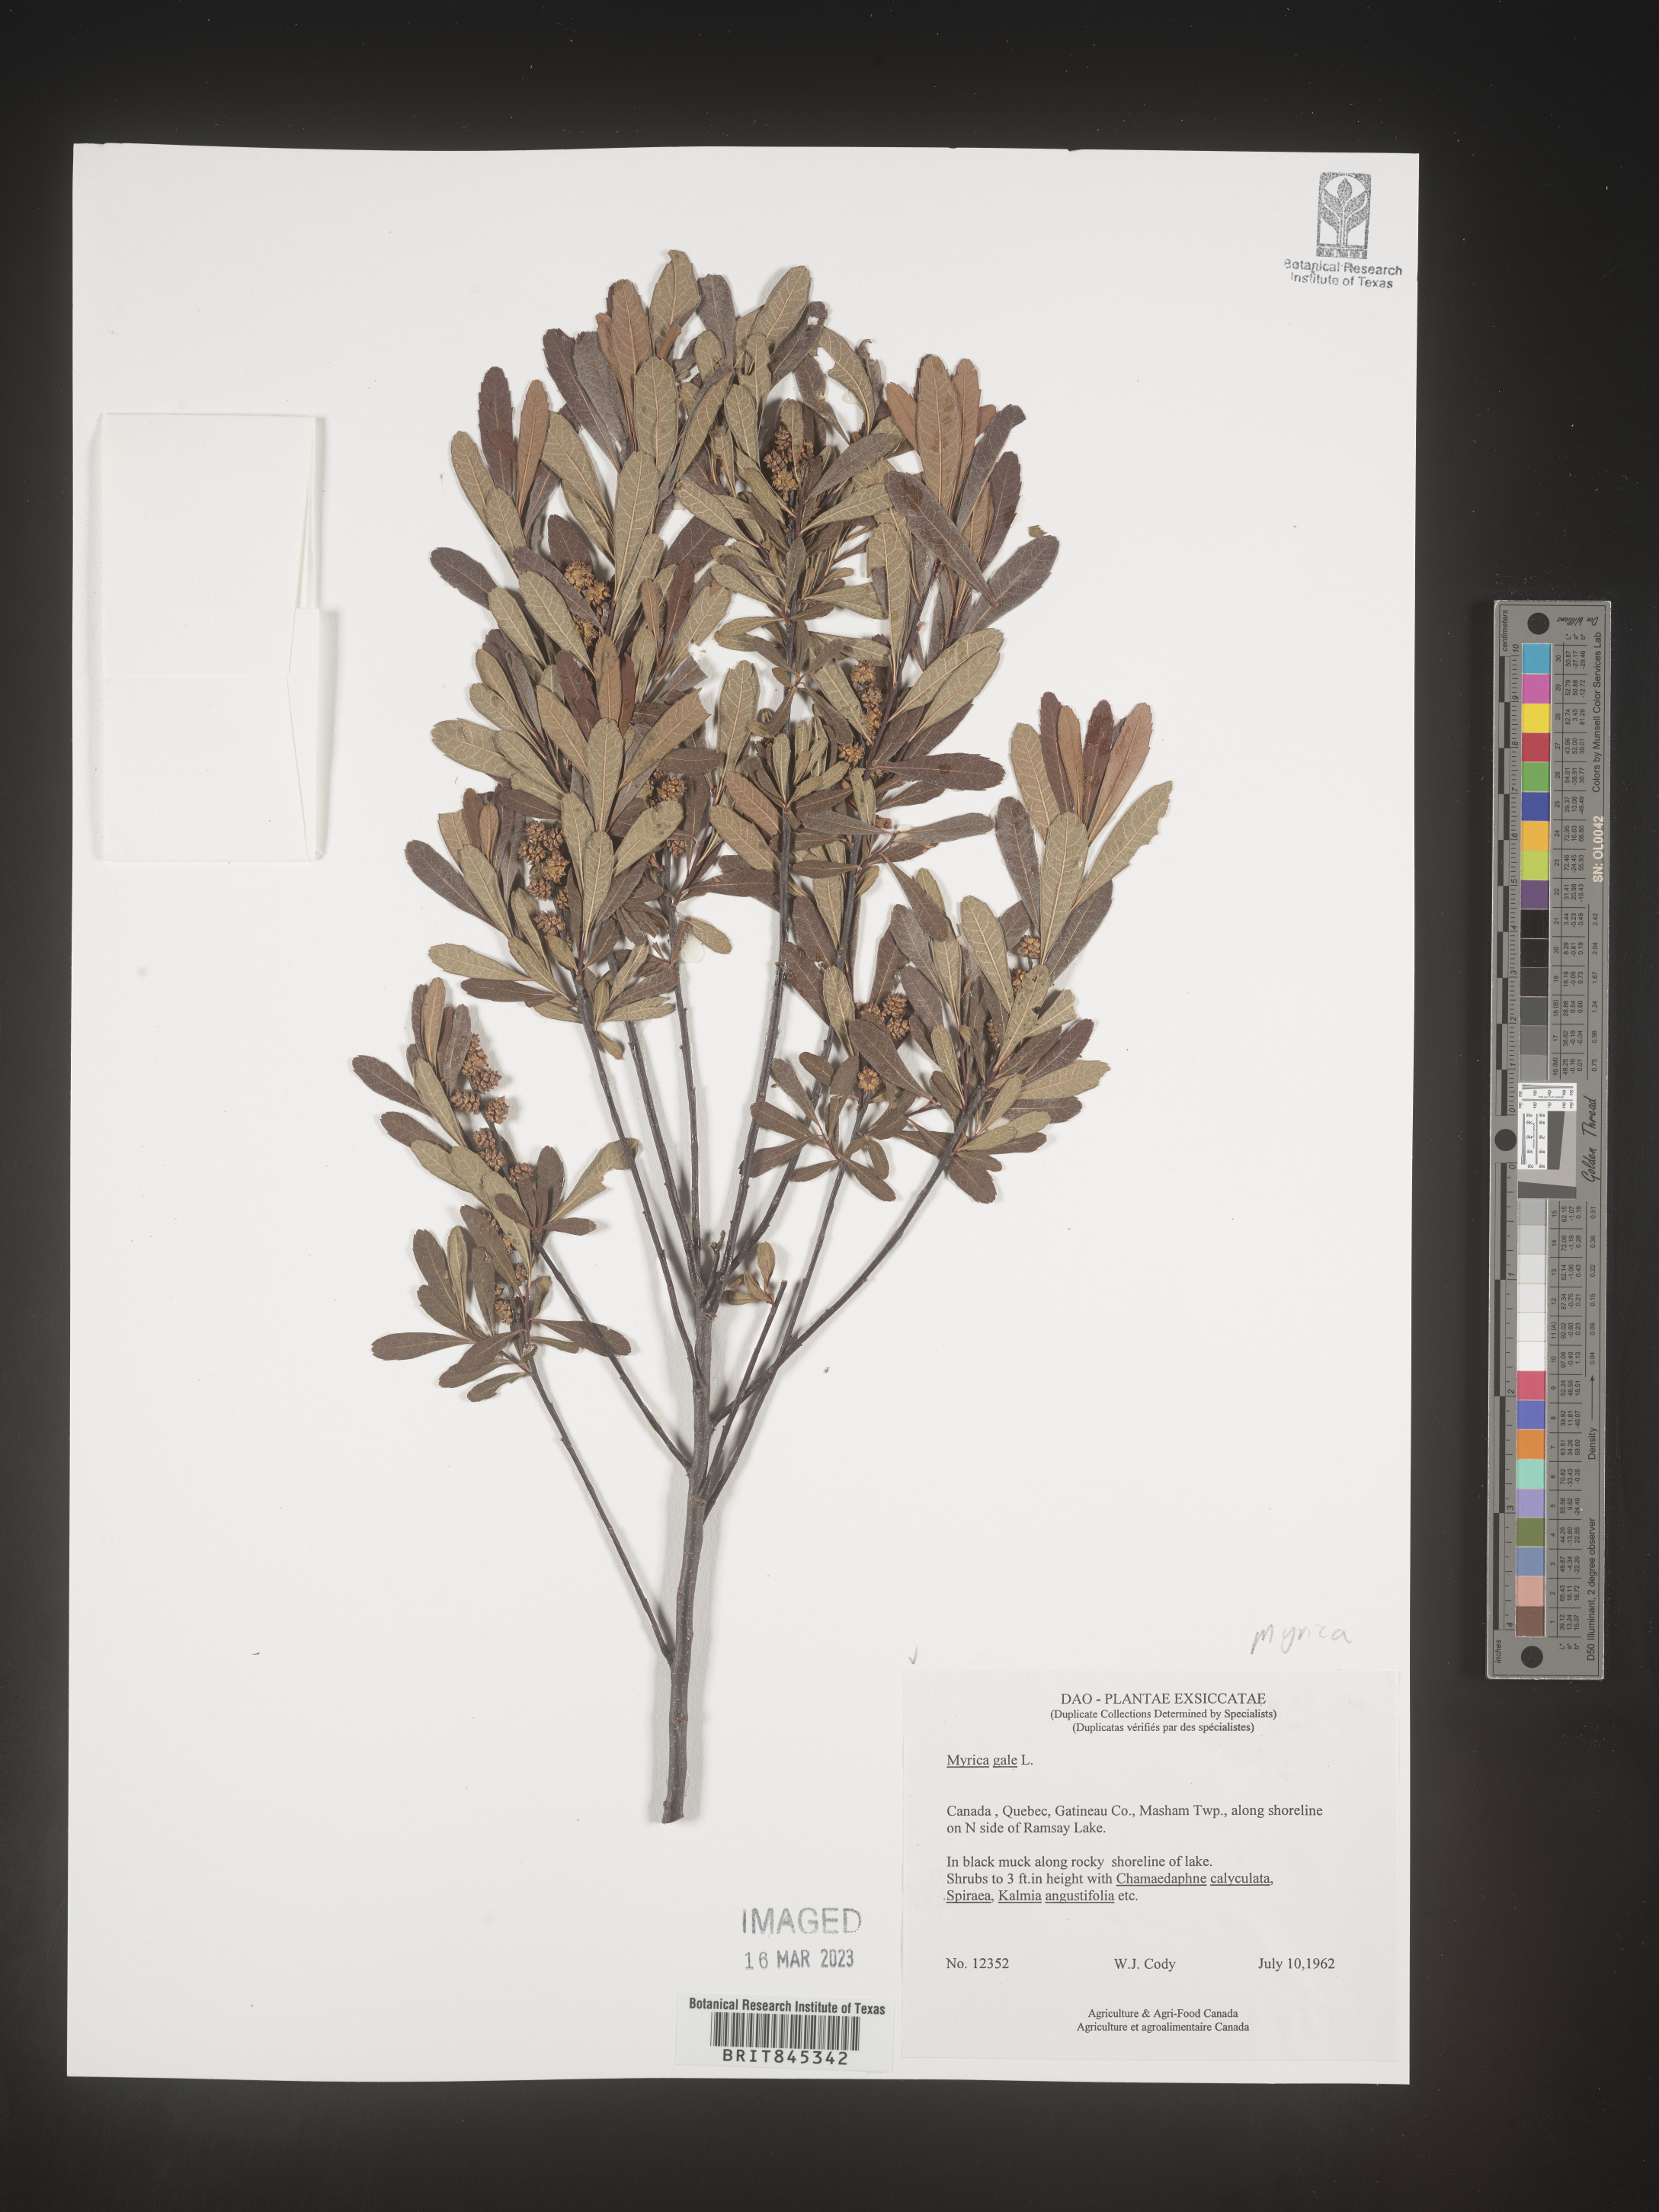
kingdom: Plantae
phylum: Tracheophyta
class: Magnoliopsida
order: Fagales
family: Myricaceae
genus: Myrica
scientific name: Myrica gale
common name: Sweet gale
